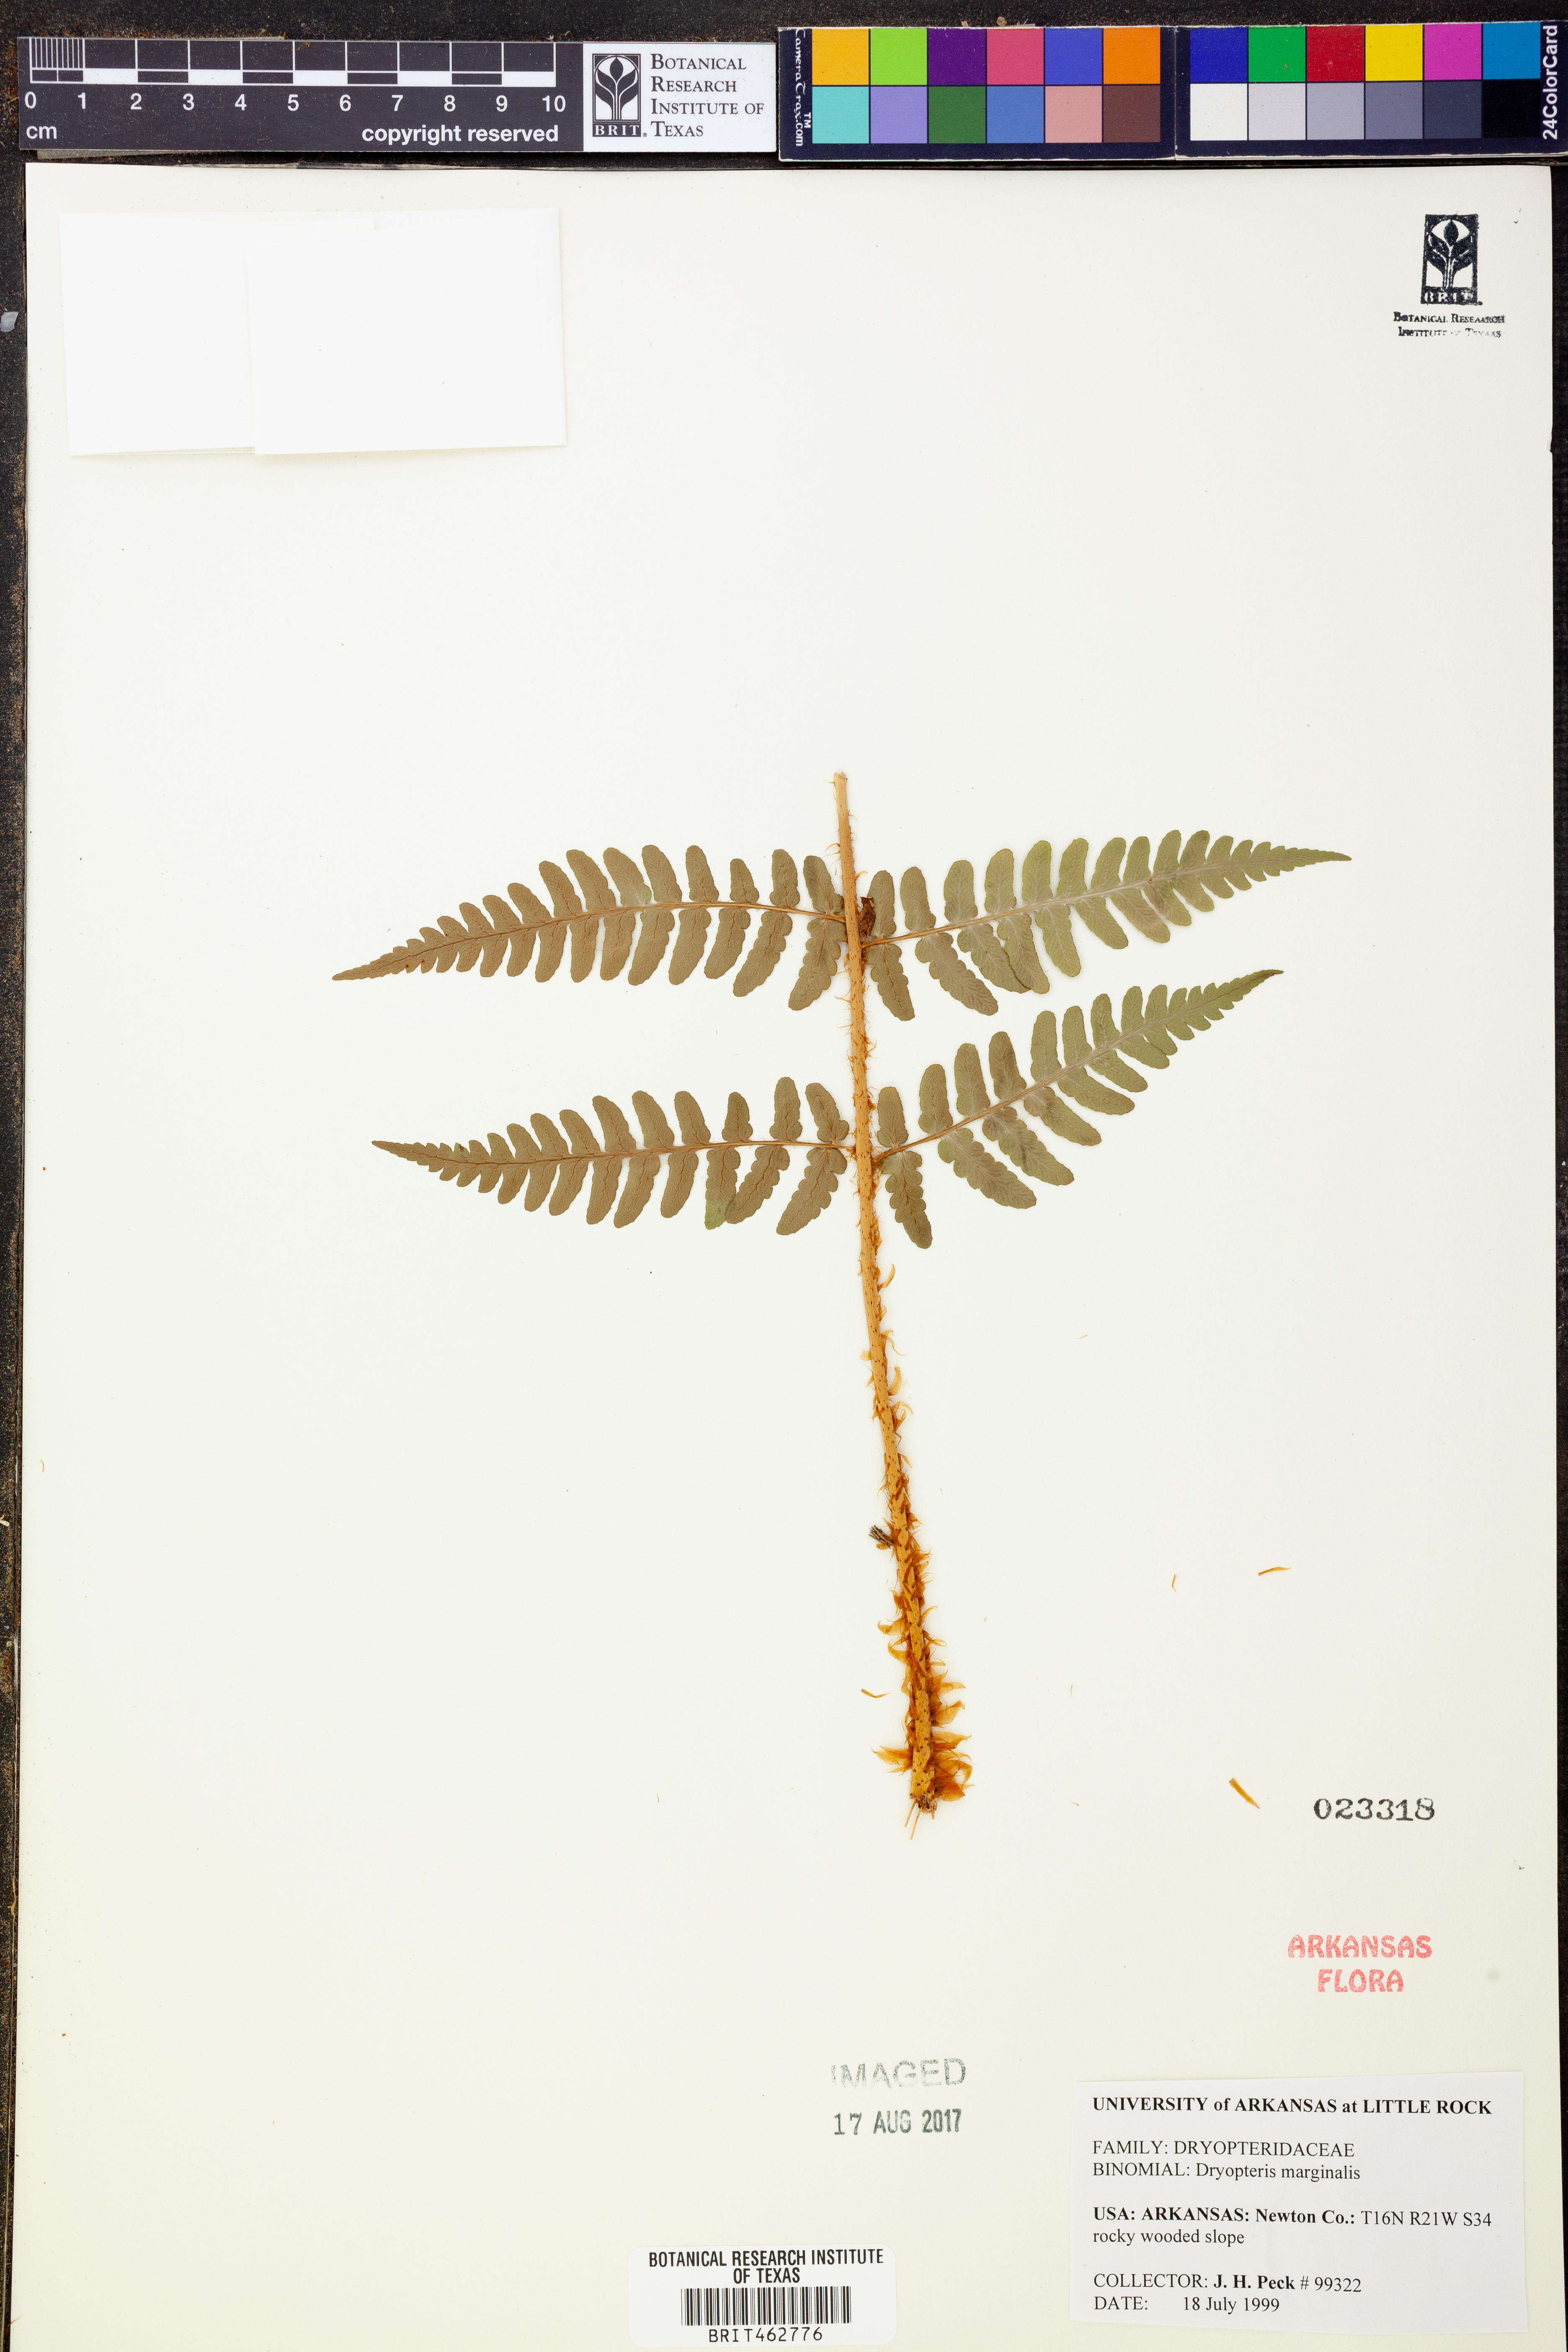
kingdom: Plantae
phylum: Tracheophyta
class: Polypodiopsida
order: Polypodiales
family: Dryopteridaceae
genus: Dryopteris
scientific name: Dryopteris marginalis
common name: Marginal wood fern
